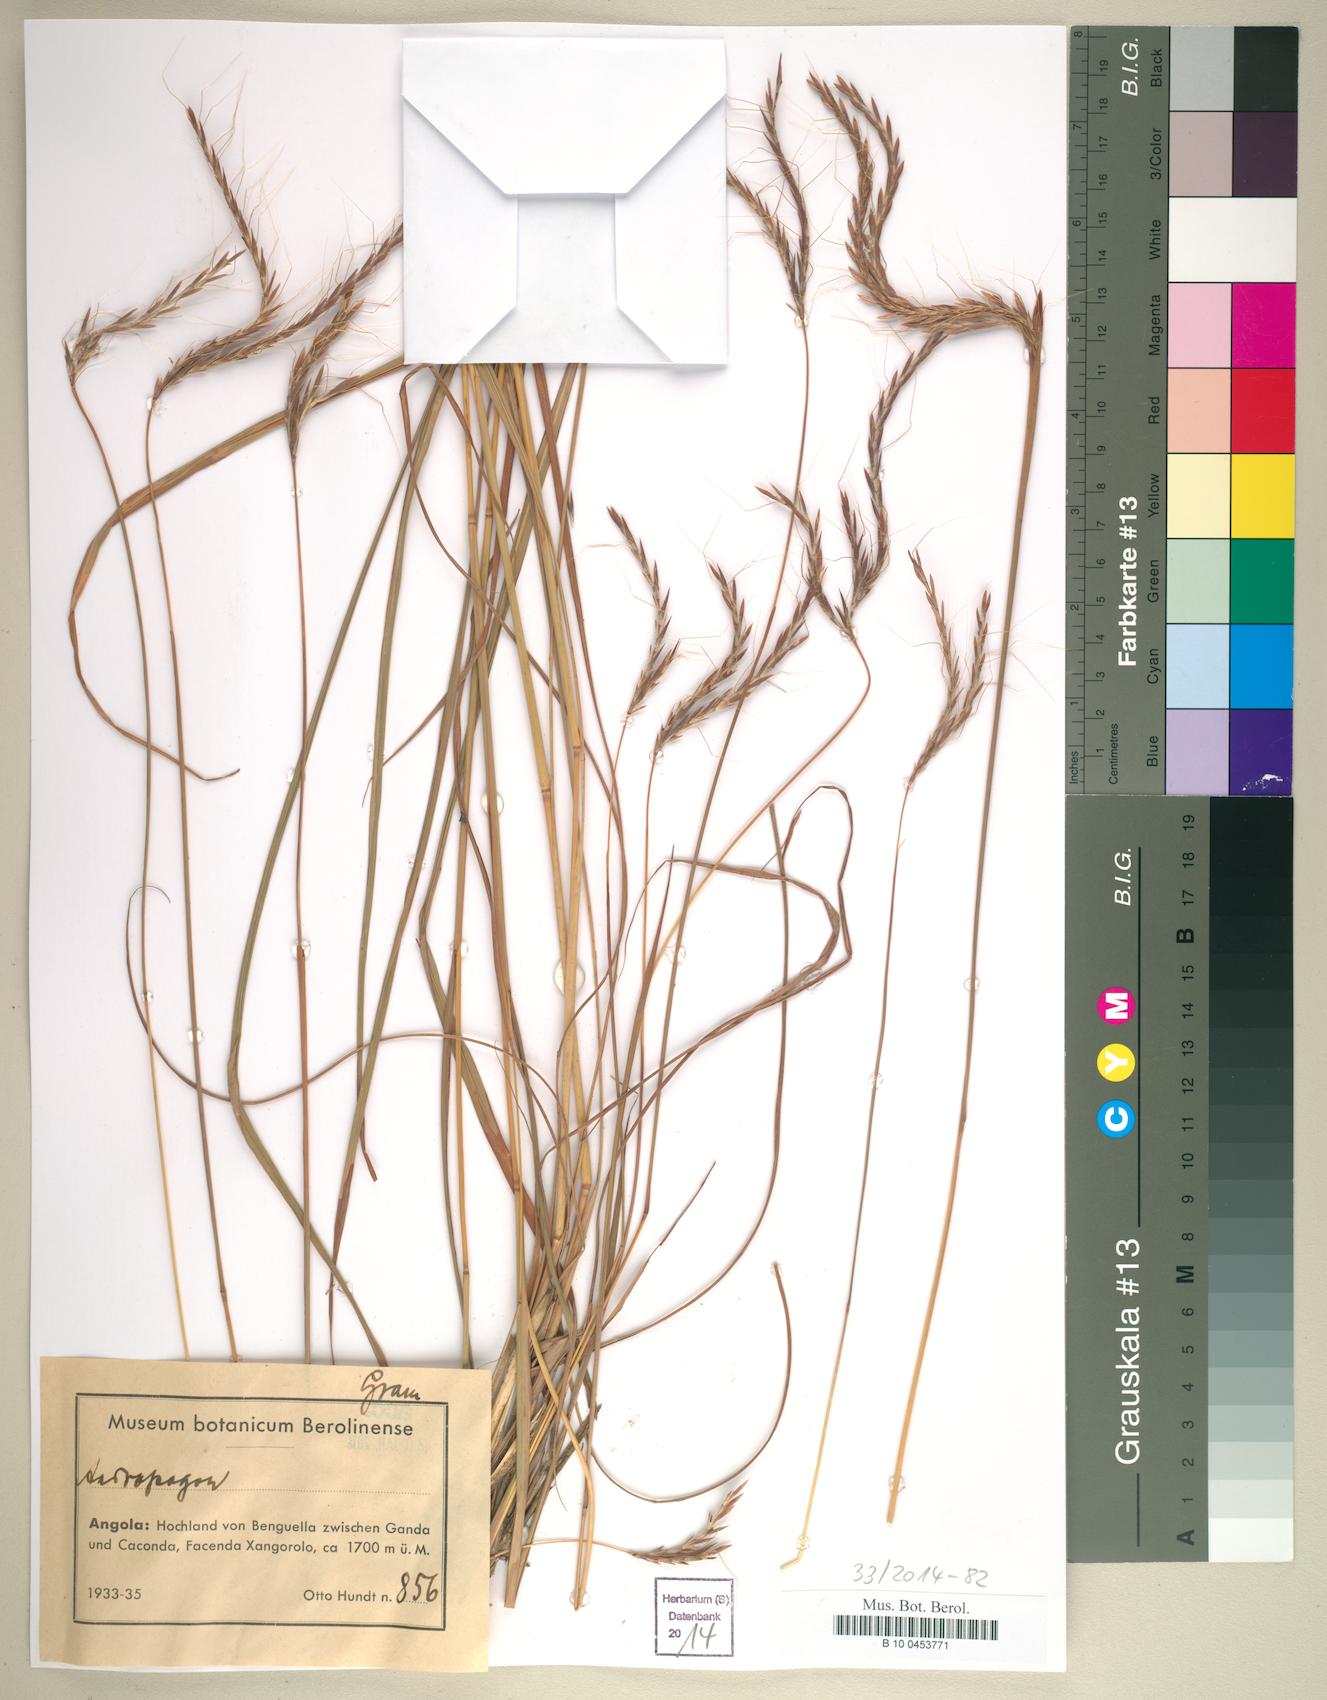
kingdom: Plantae
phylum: Tracheophyta
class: Liliopsida
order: Poales
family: Poaceae
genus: Andropogon
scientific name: Andropogon
